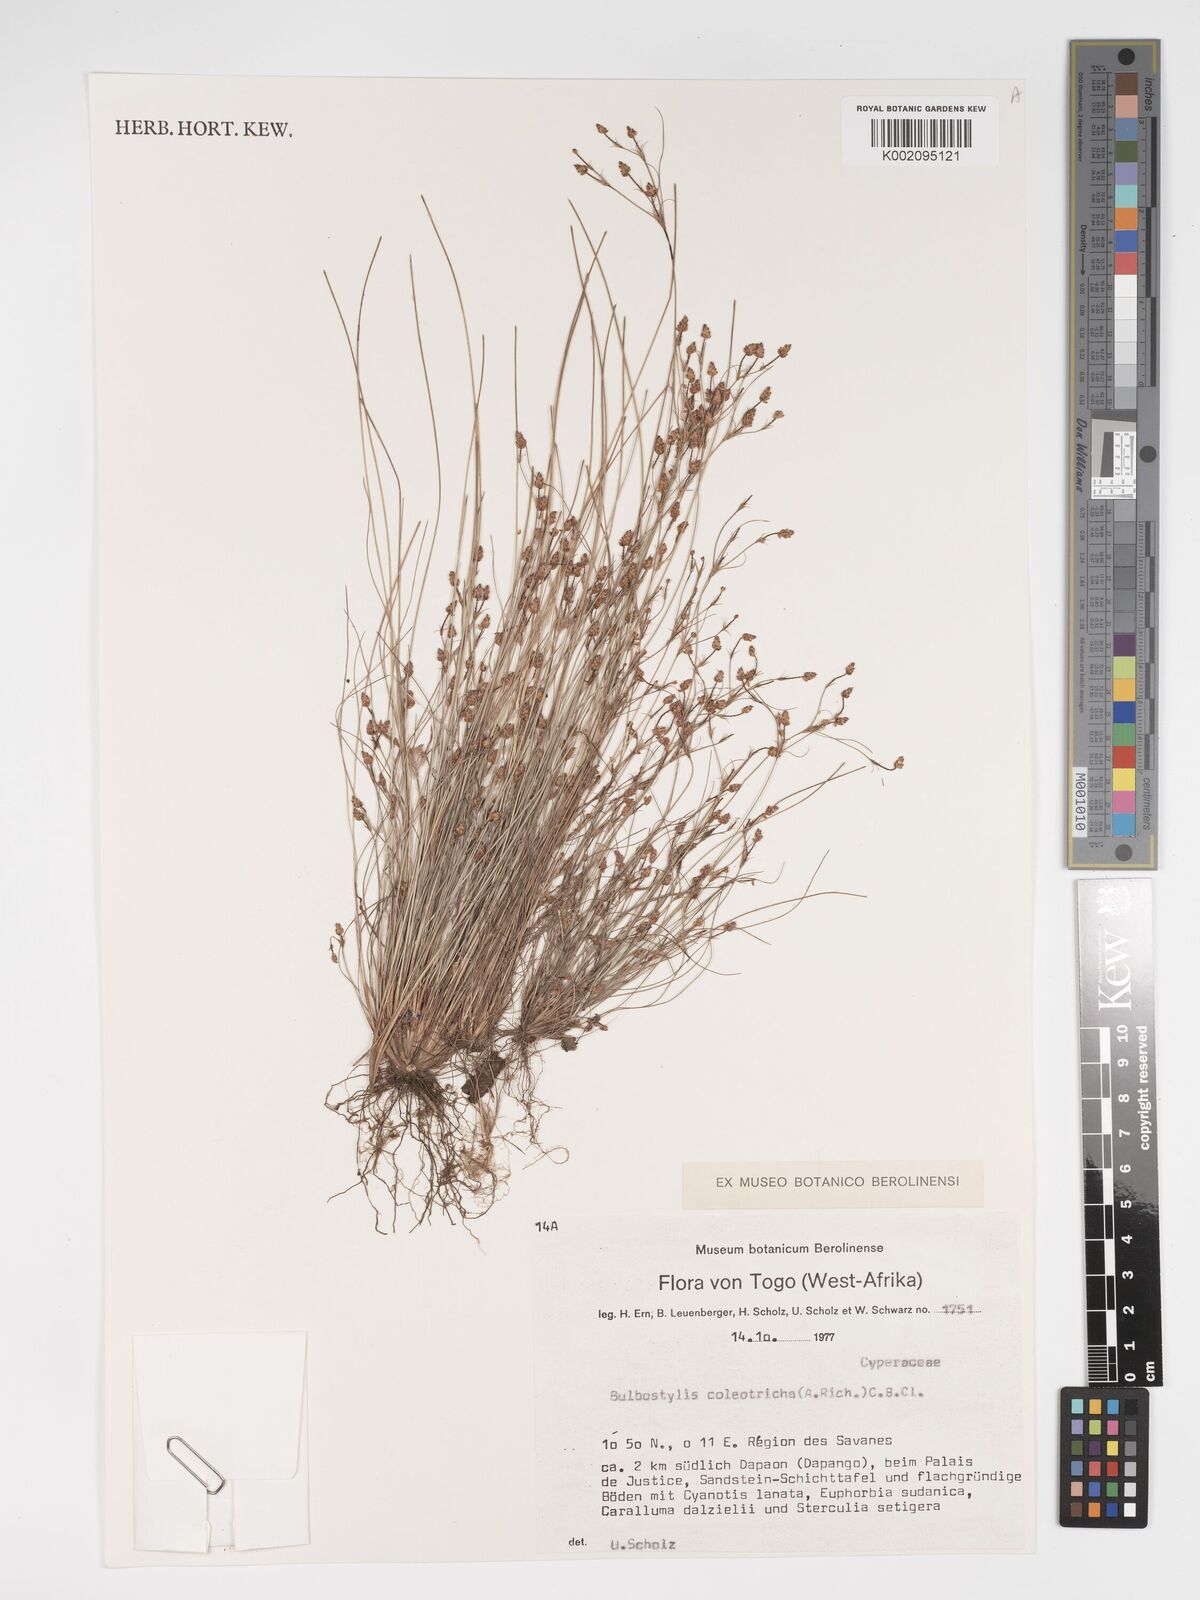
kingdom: Plantae
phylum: Tracheophyta
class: Liliopsida
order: Poales
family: Cyperaceae
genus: Bulbostylis
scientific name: Bulbostylis coleotricha
